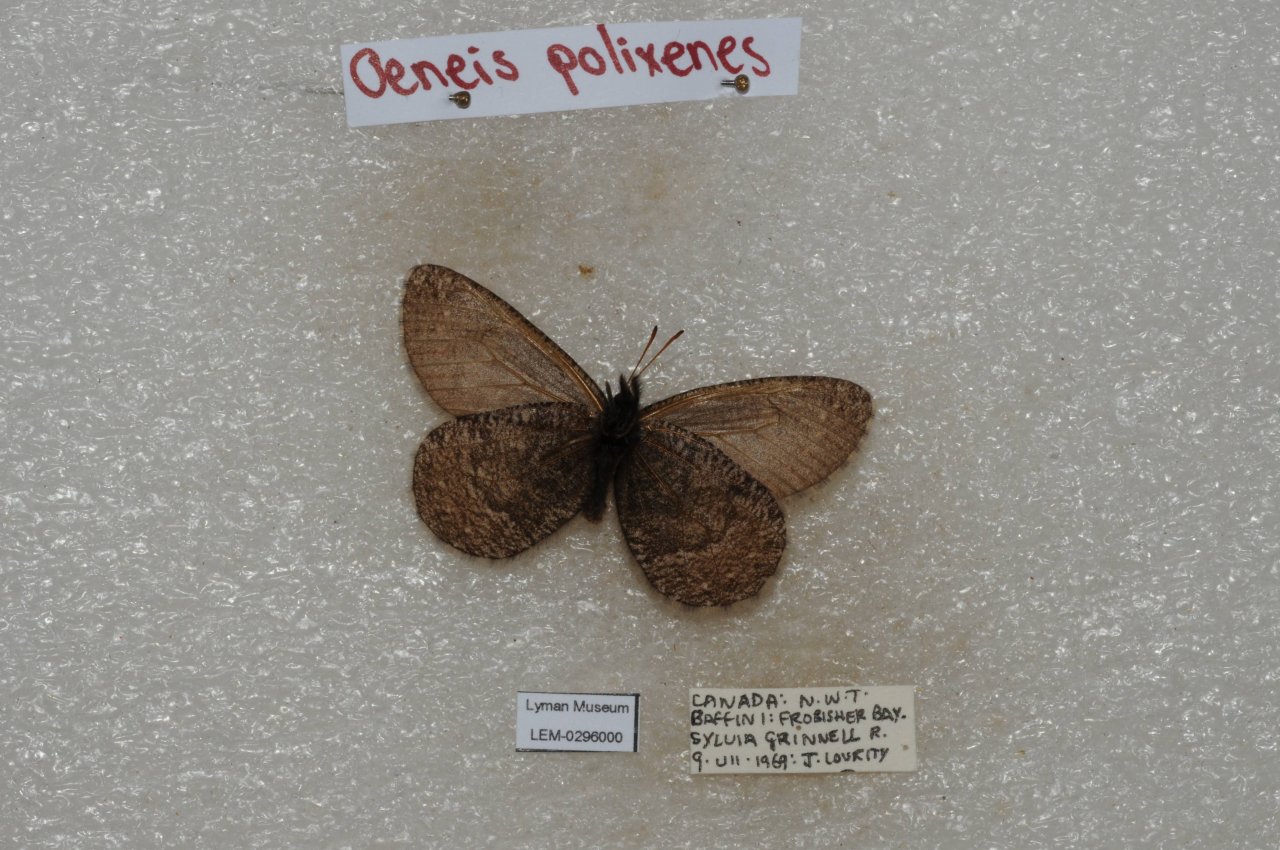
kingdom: Animalia
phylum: Arthropoda
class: Insecta
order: Lepidoptera
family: Nymphalidae
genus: Oeneis
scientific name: Oeneis bore
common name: Polixenes Arctic
